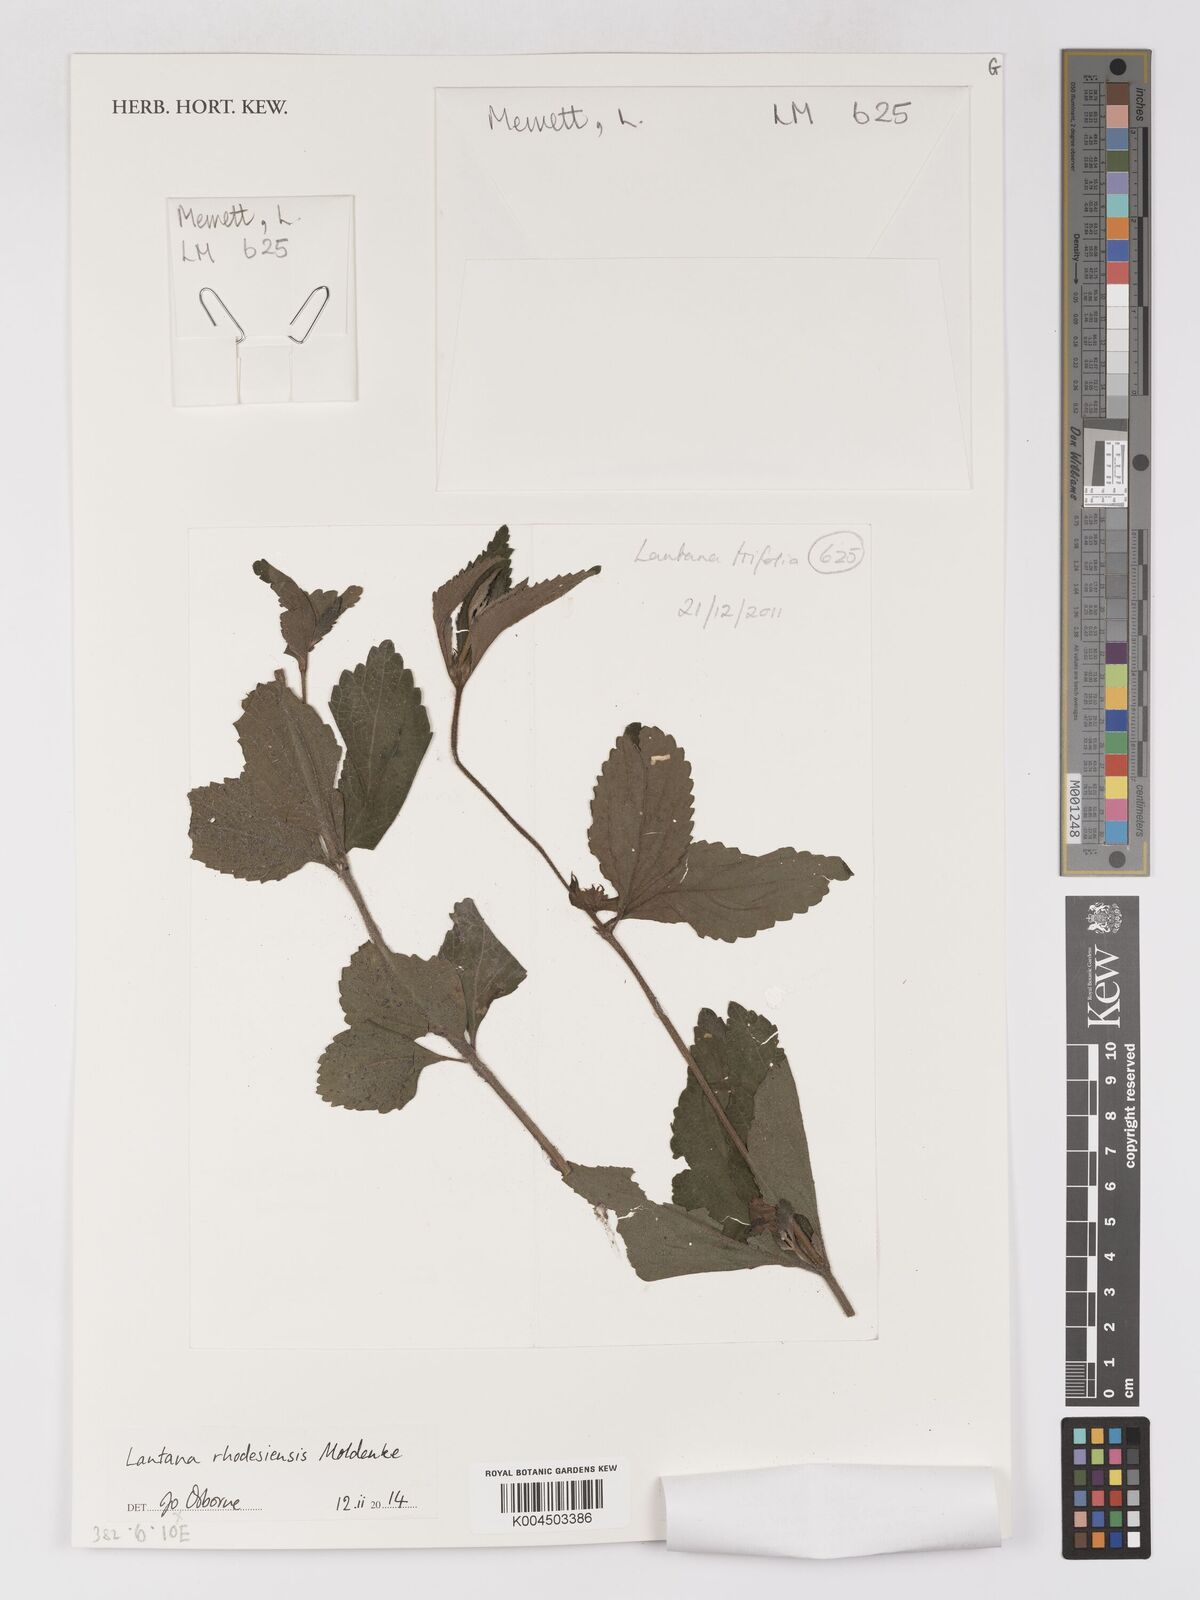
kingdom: Plantae
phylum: Tracheophyta
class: Magnoliopsida
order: Lamiales
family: Verbenaceae
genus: Lantana
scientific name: Lantana ukambensis
